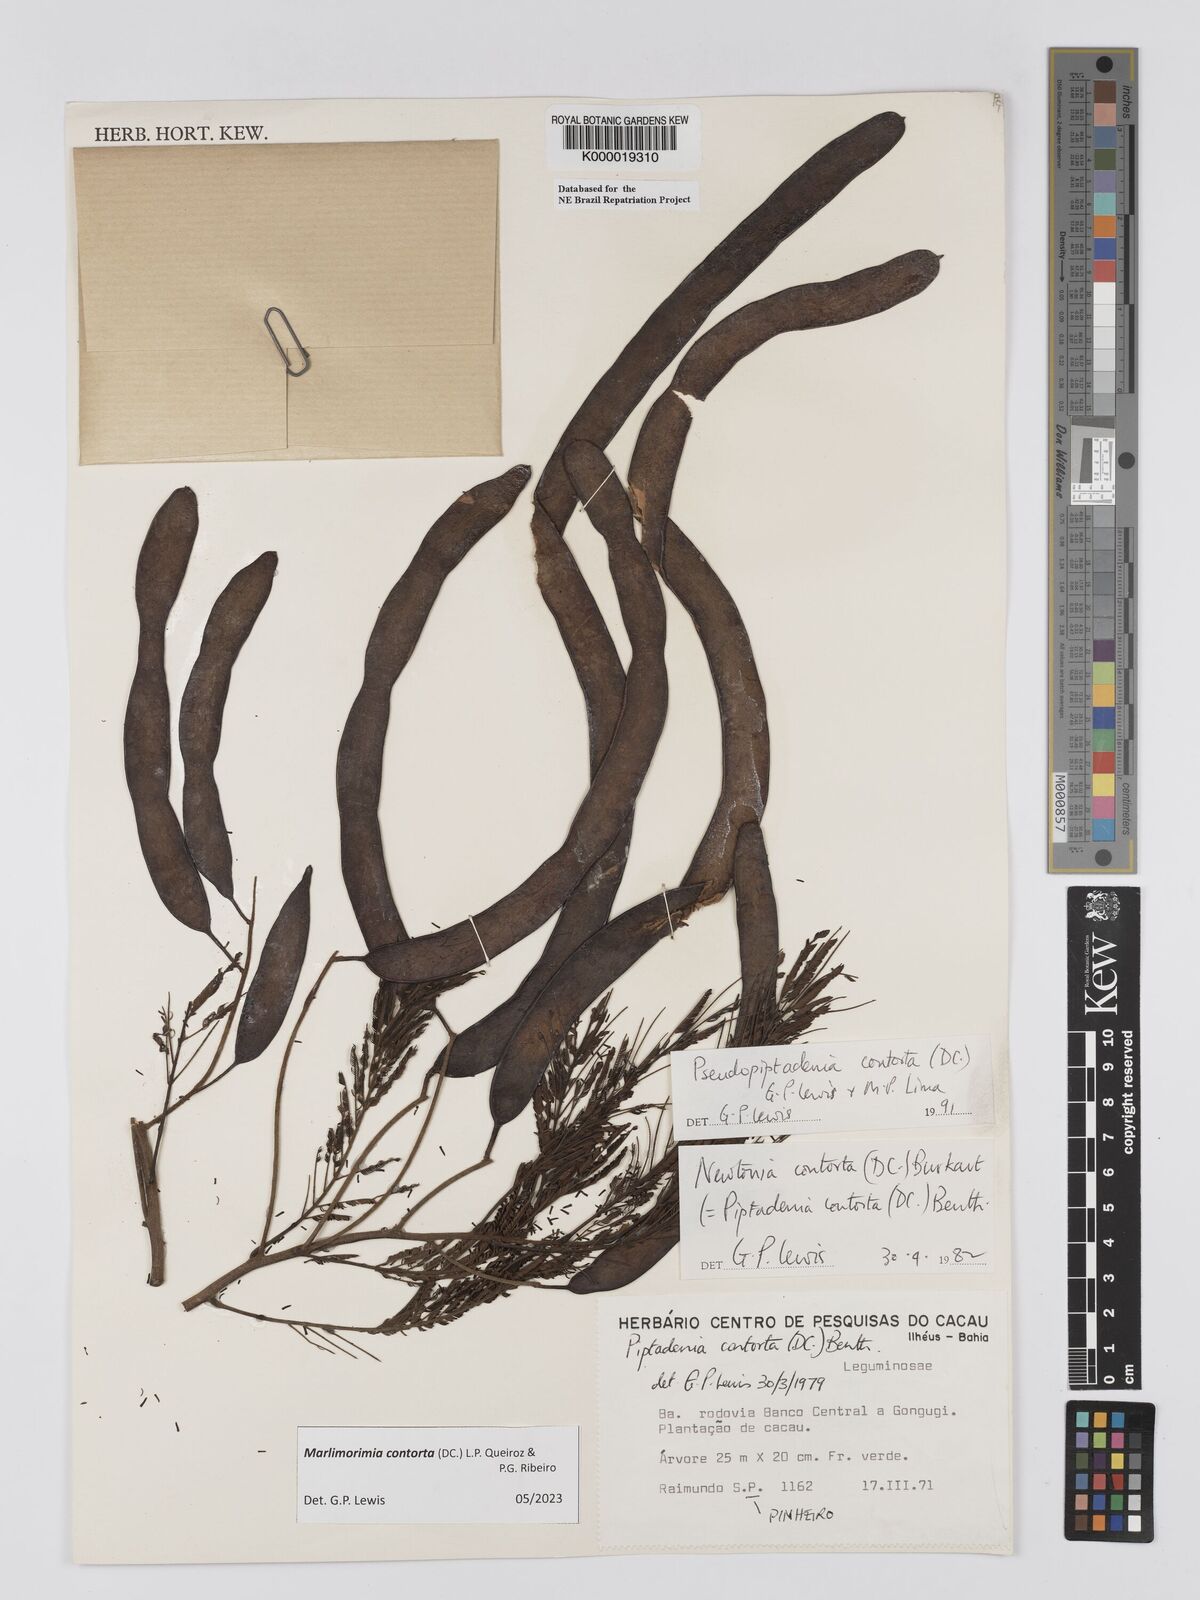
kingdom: Plantae
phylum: Tracheophyta
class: Magnoliopsida
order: Fabales
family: Fabaceae
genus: Pseudopiptadenia
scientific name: Pseudopiptadenia contorta
